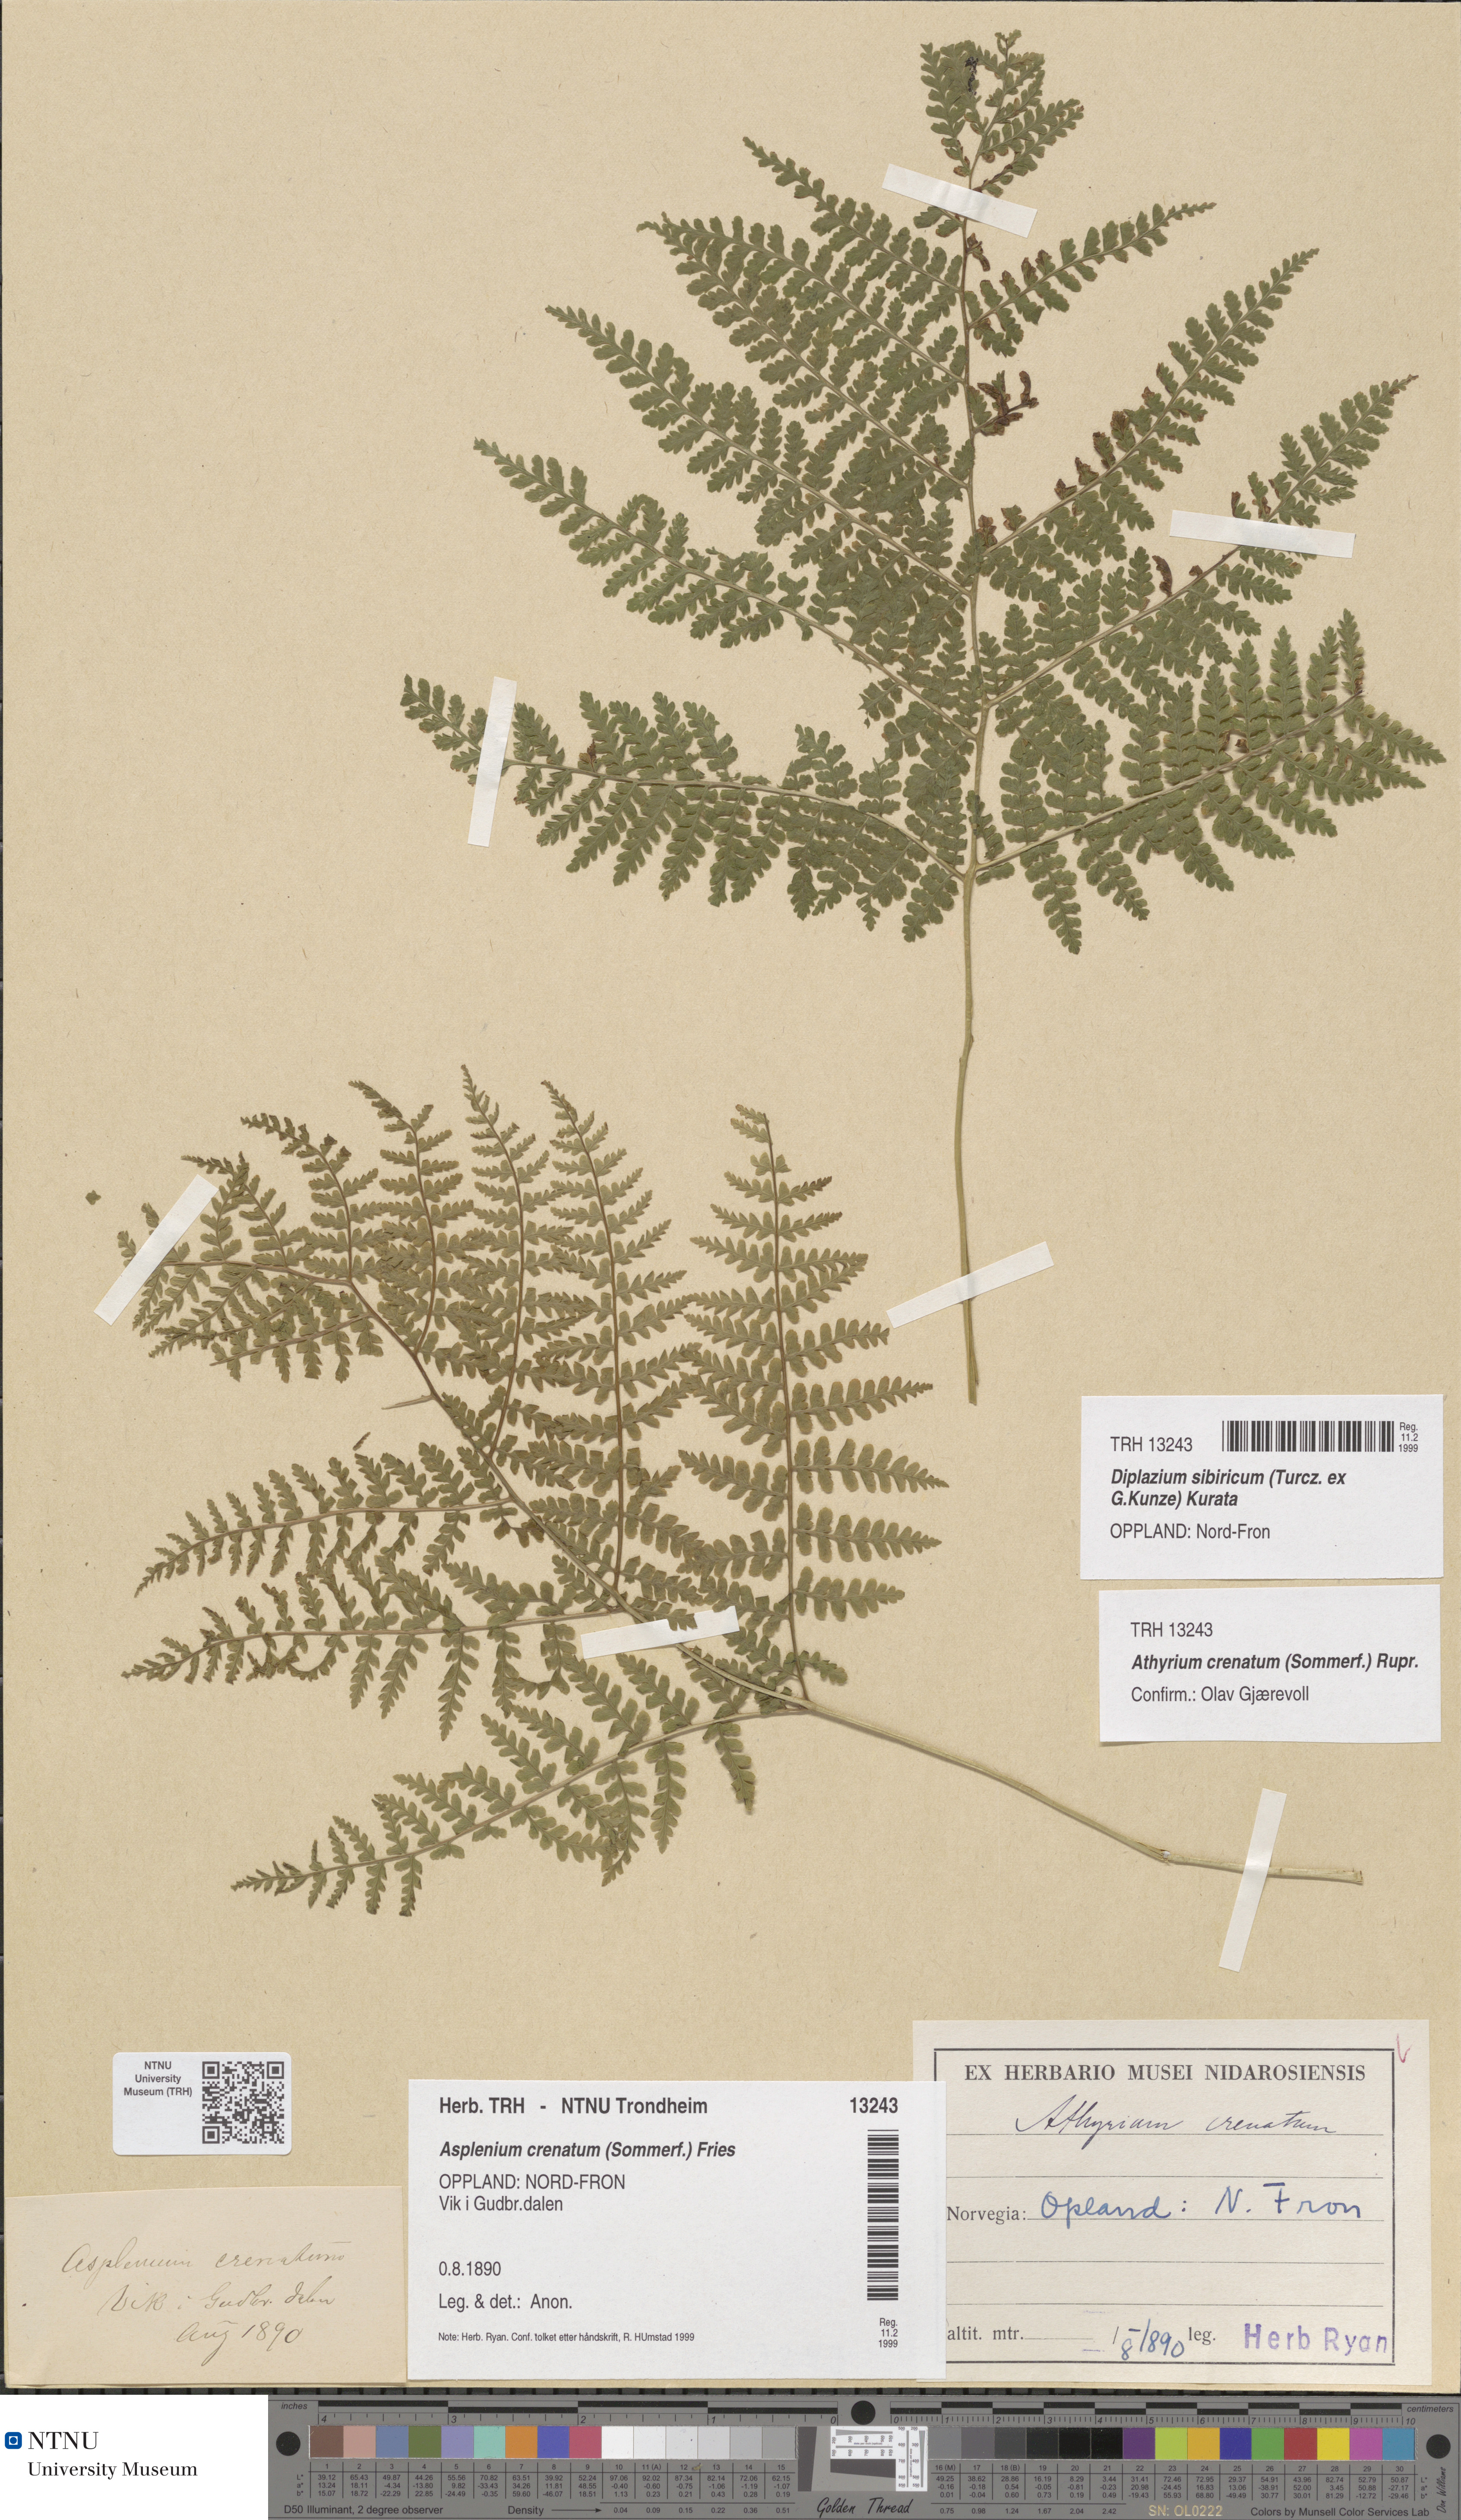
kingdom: Plantae
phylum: Tracheophyta
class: Polypodiopsida
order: Polypodiales
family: Athyriaceae
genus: Diplazium
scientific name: Diplazium sibiricum
